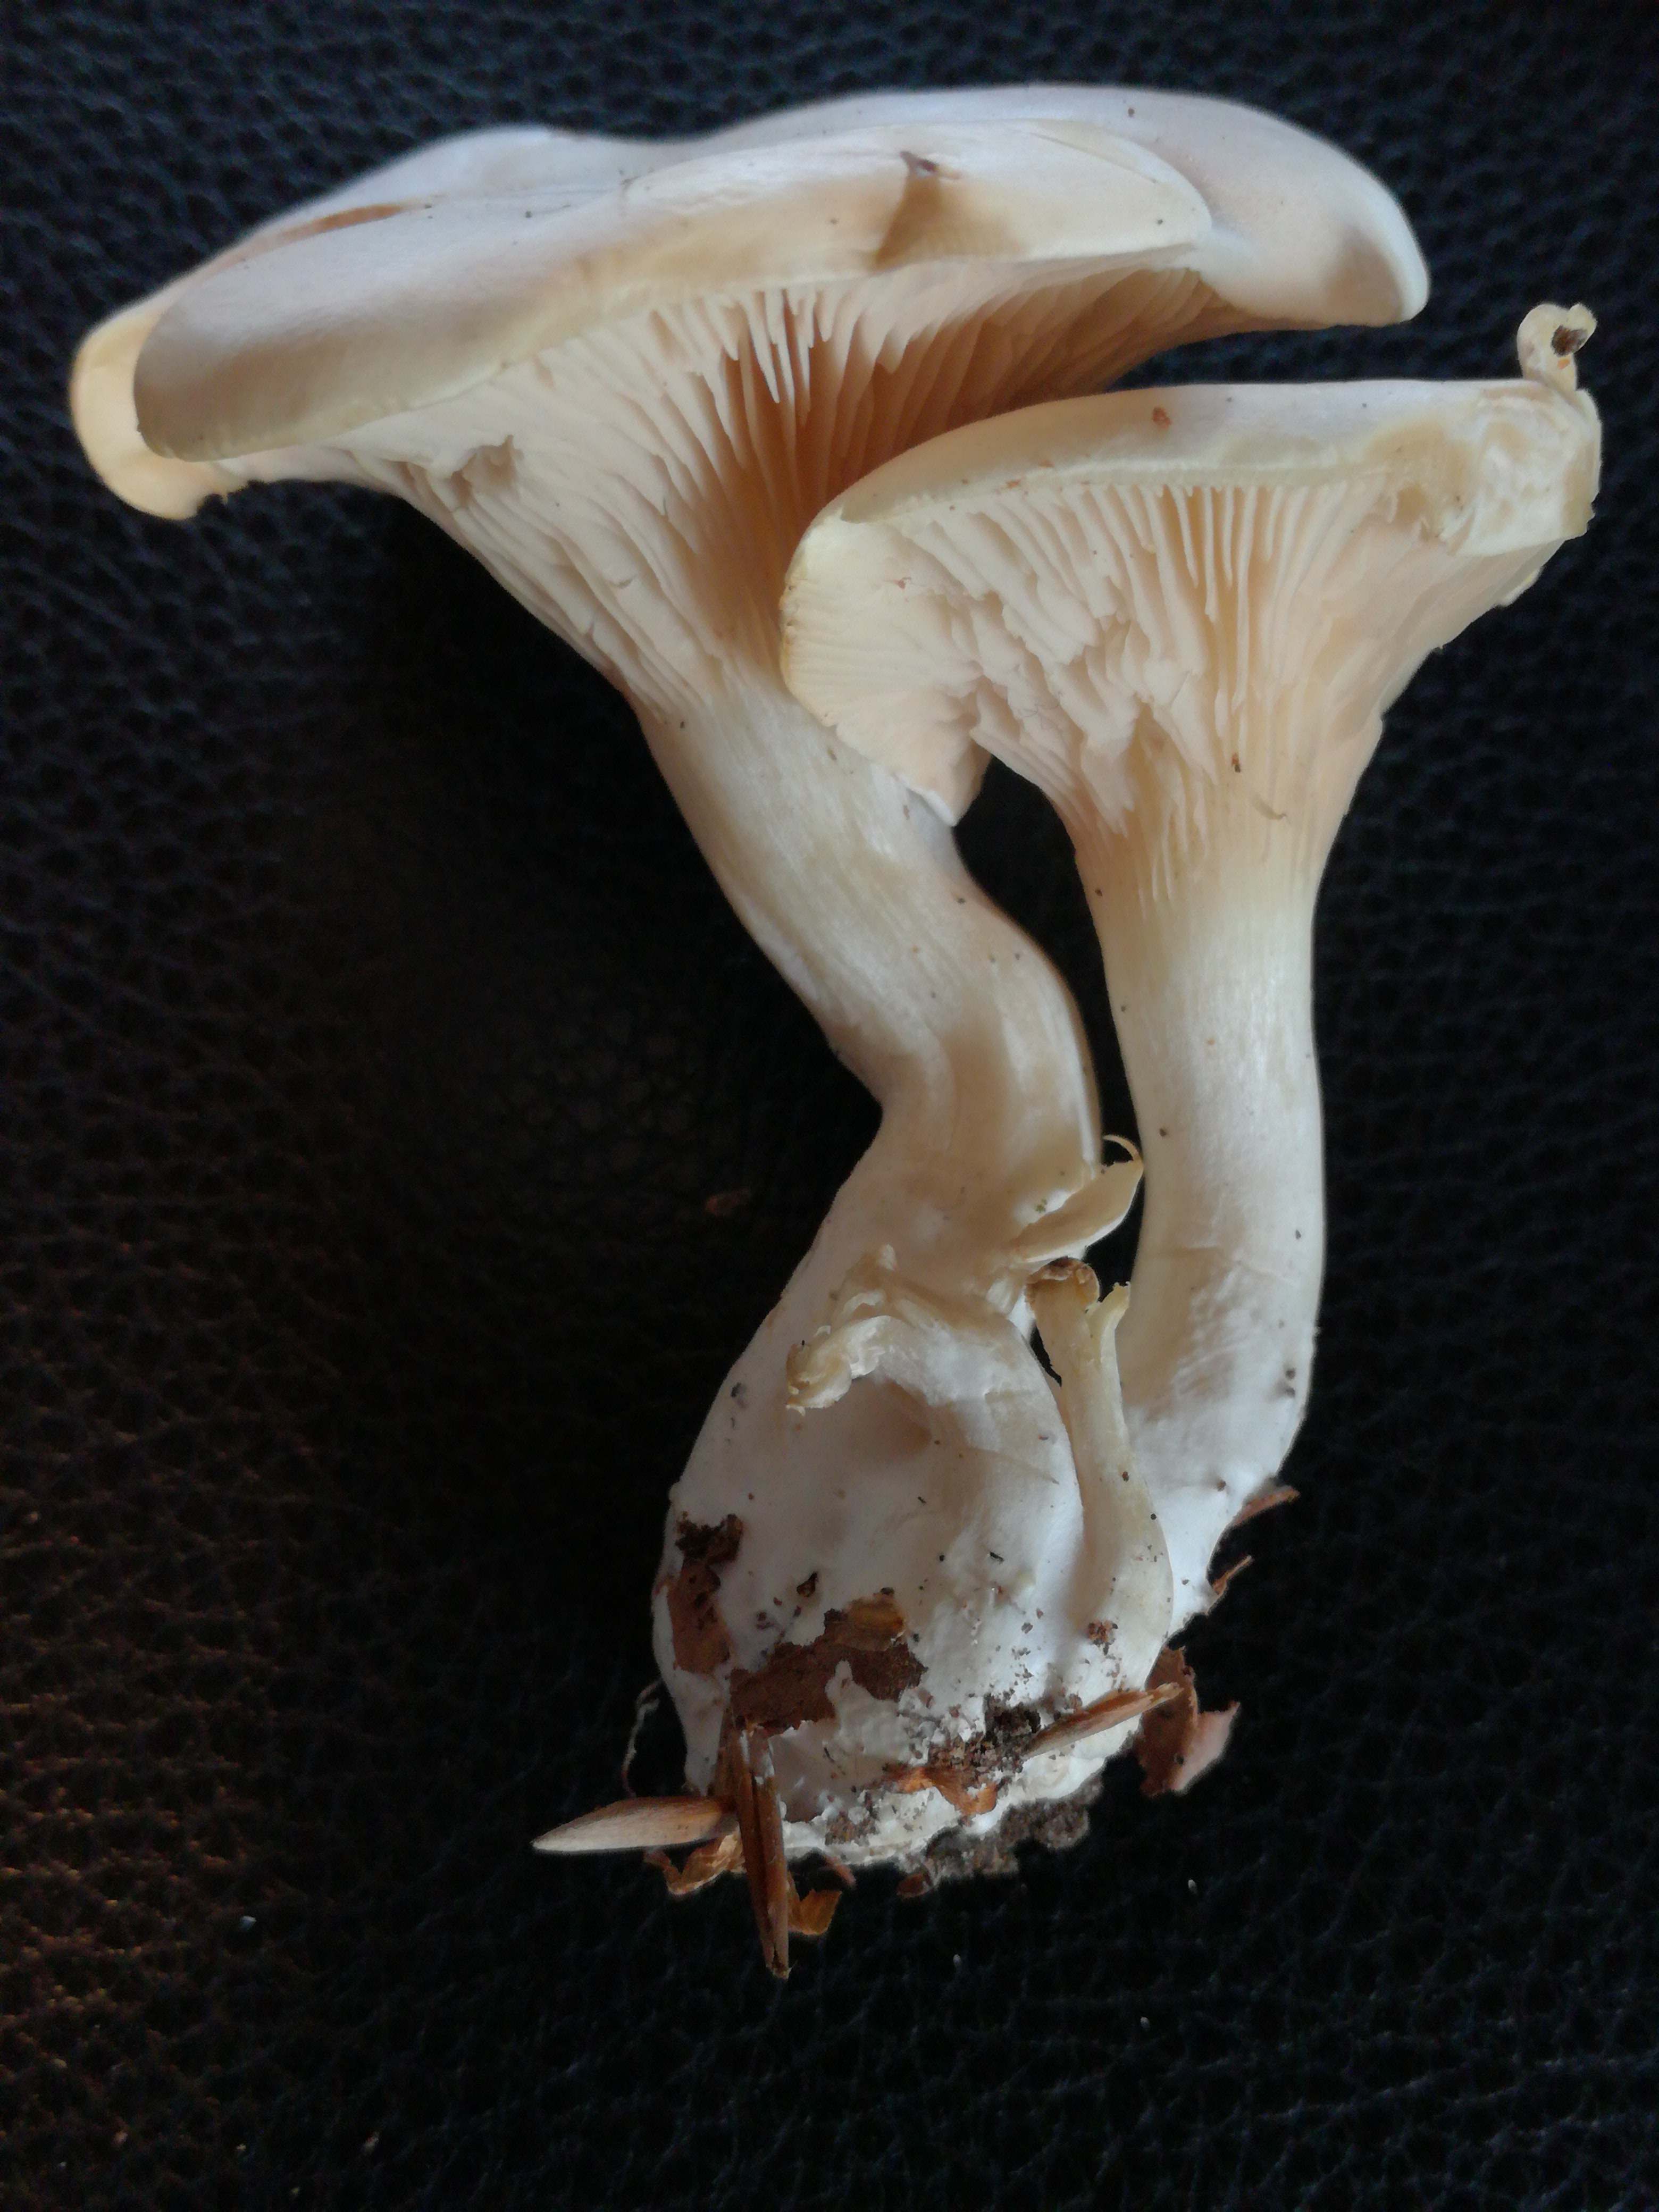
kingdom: Fungi
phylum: Basidiomycota
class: Agaricomycetes
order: Agaricales
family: Entolomataceae
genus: Clitopilus
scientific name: Clitopilus prunulus
